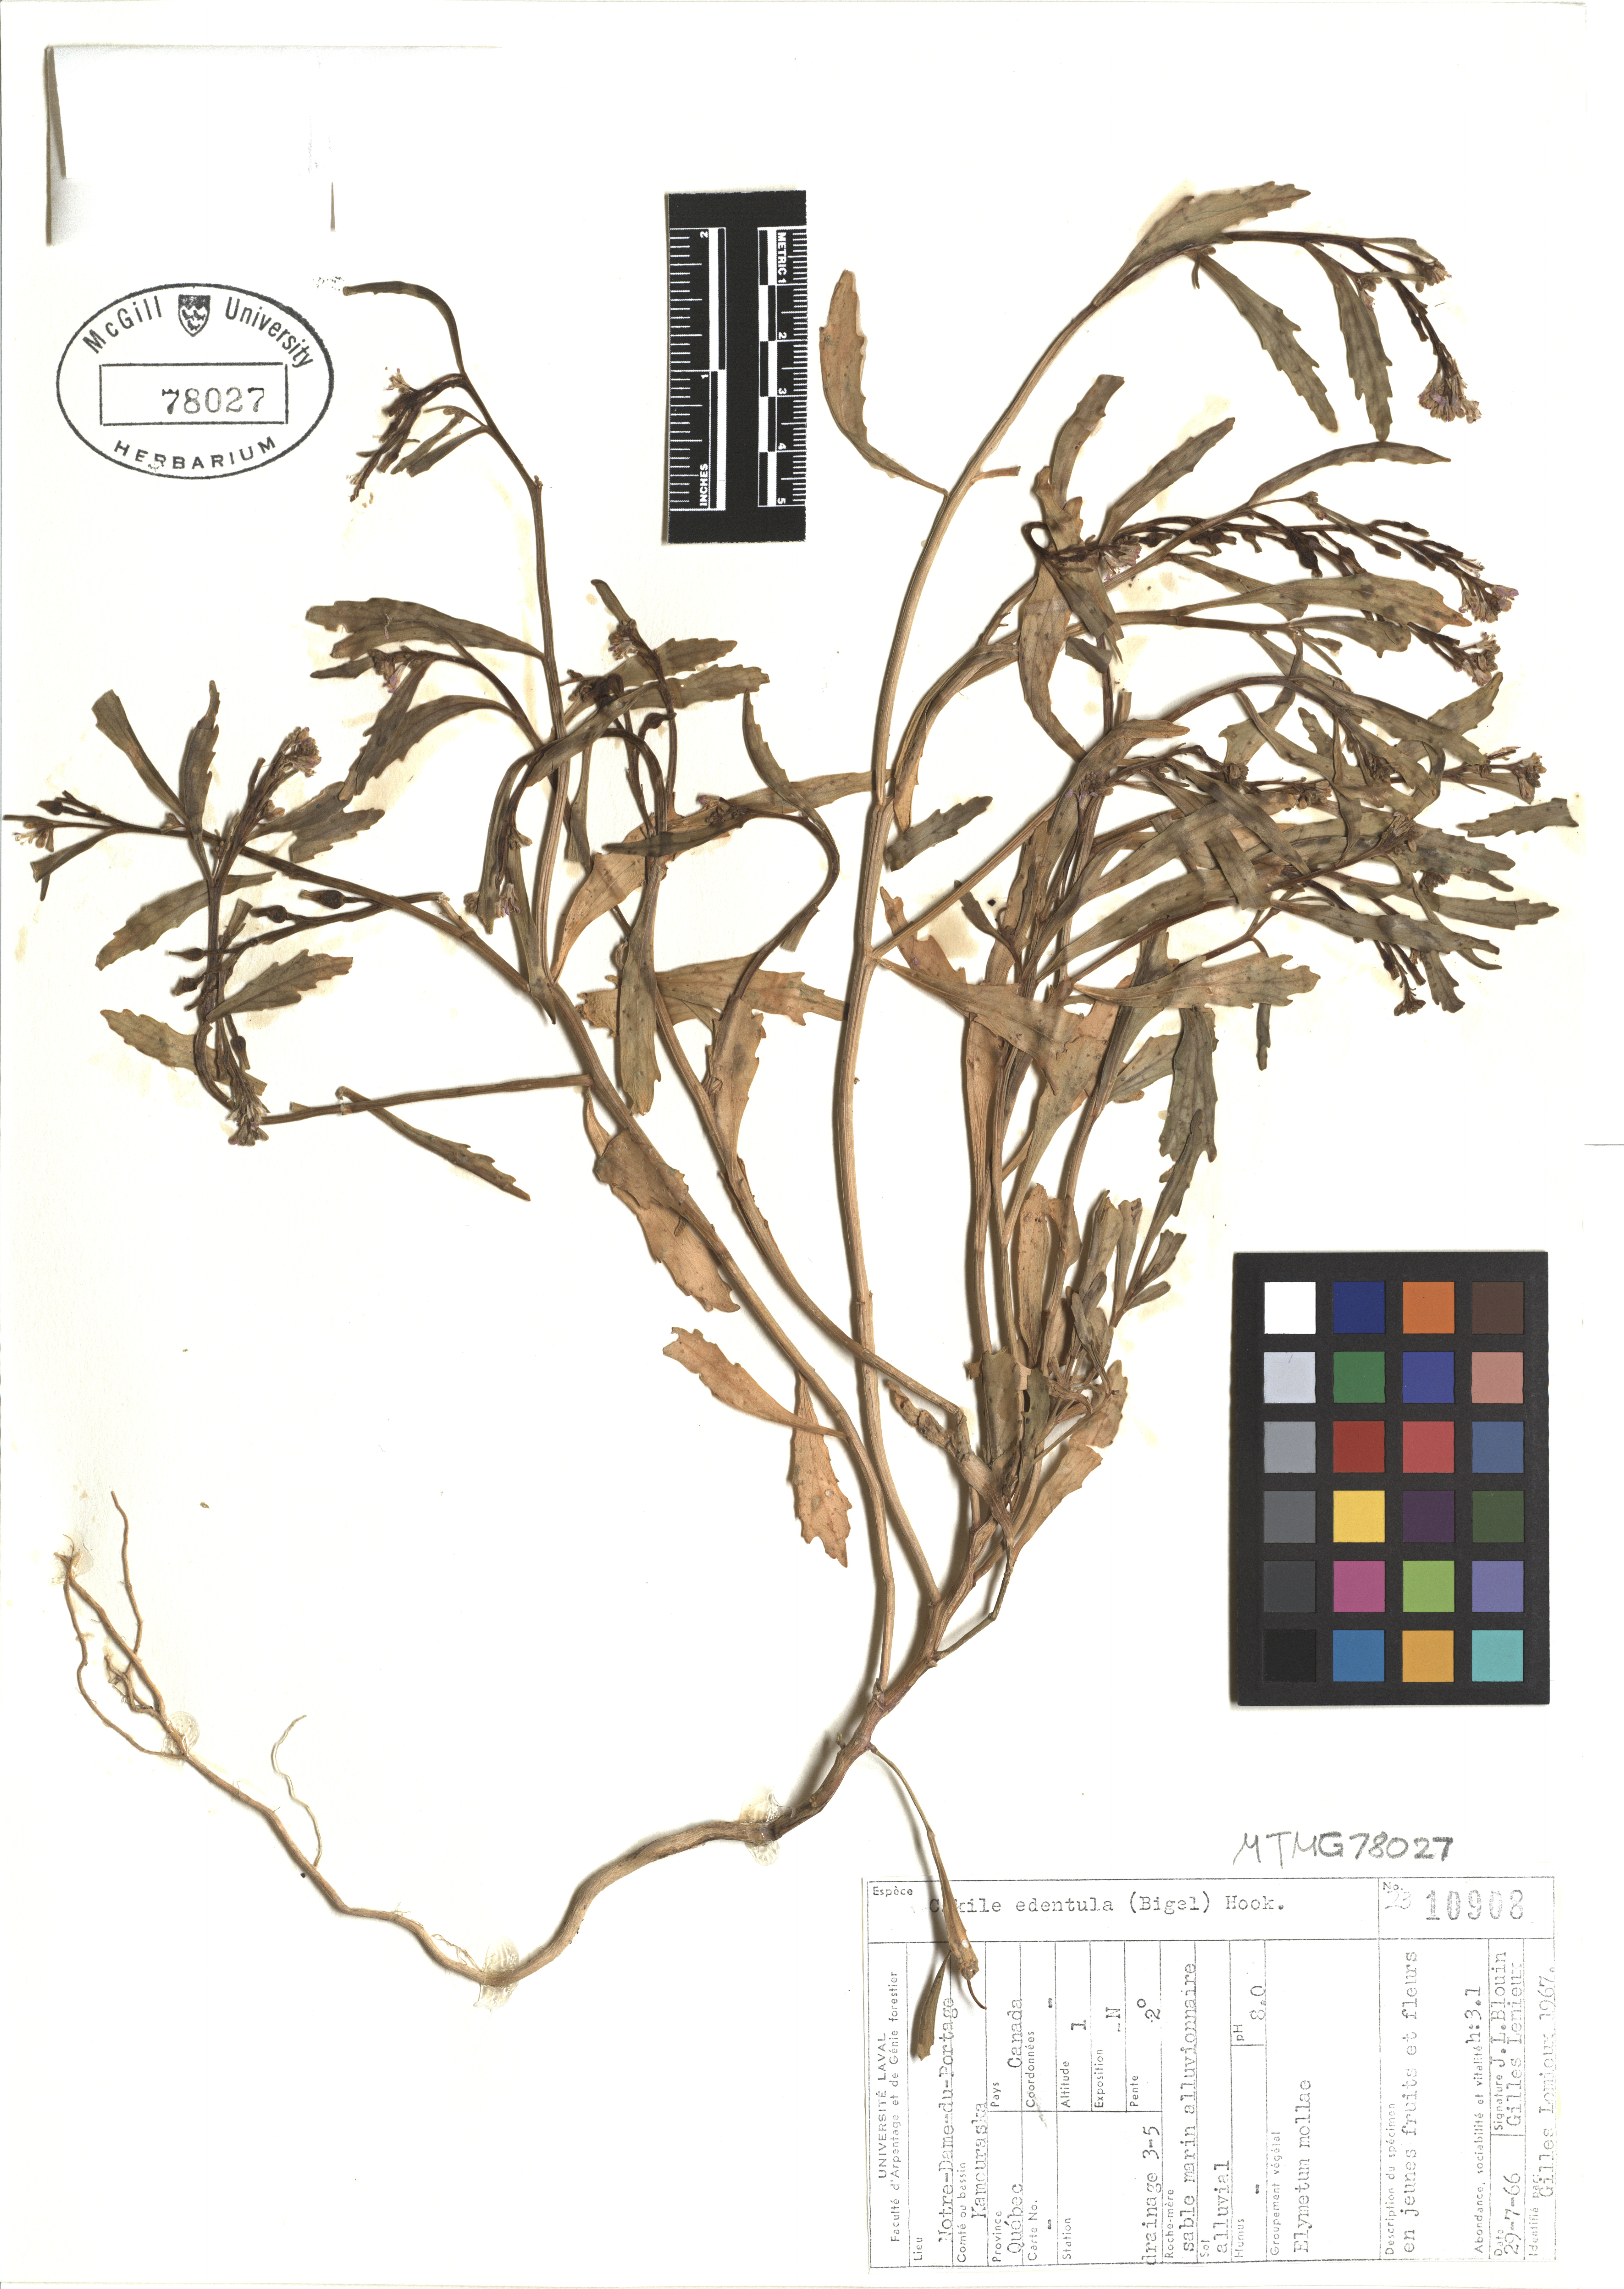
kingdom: Plantae
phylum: Tracheophyta
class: Magnoliopsida
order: Brassicales
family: Brassicaceae
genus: Cakile
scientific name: Cakile edentula
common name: American sea rocket
